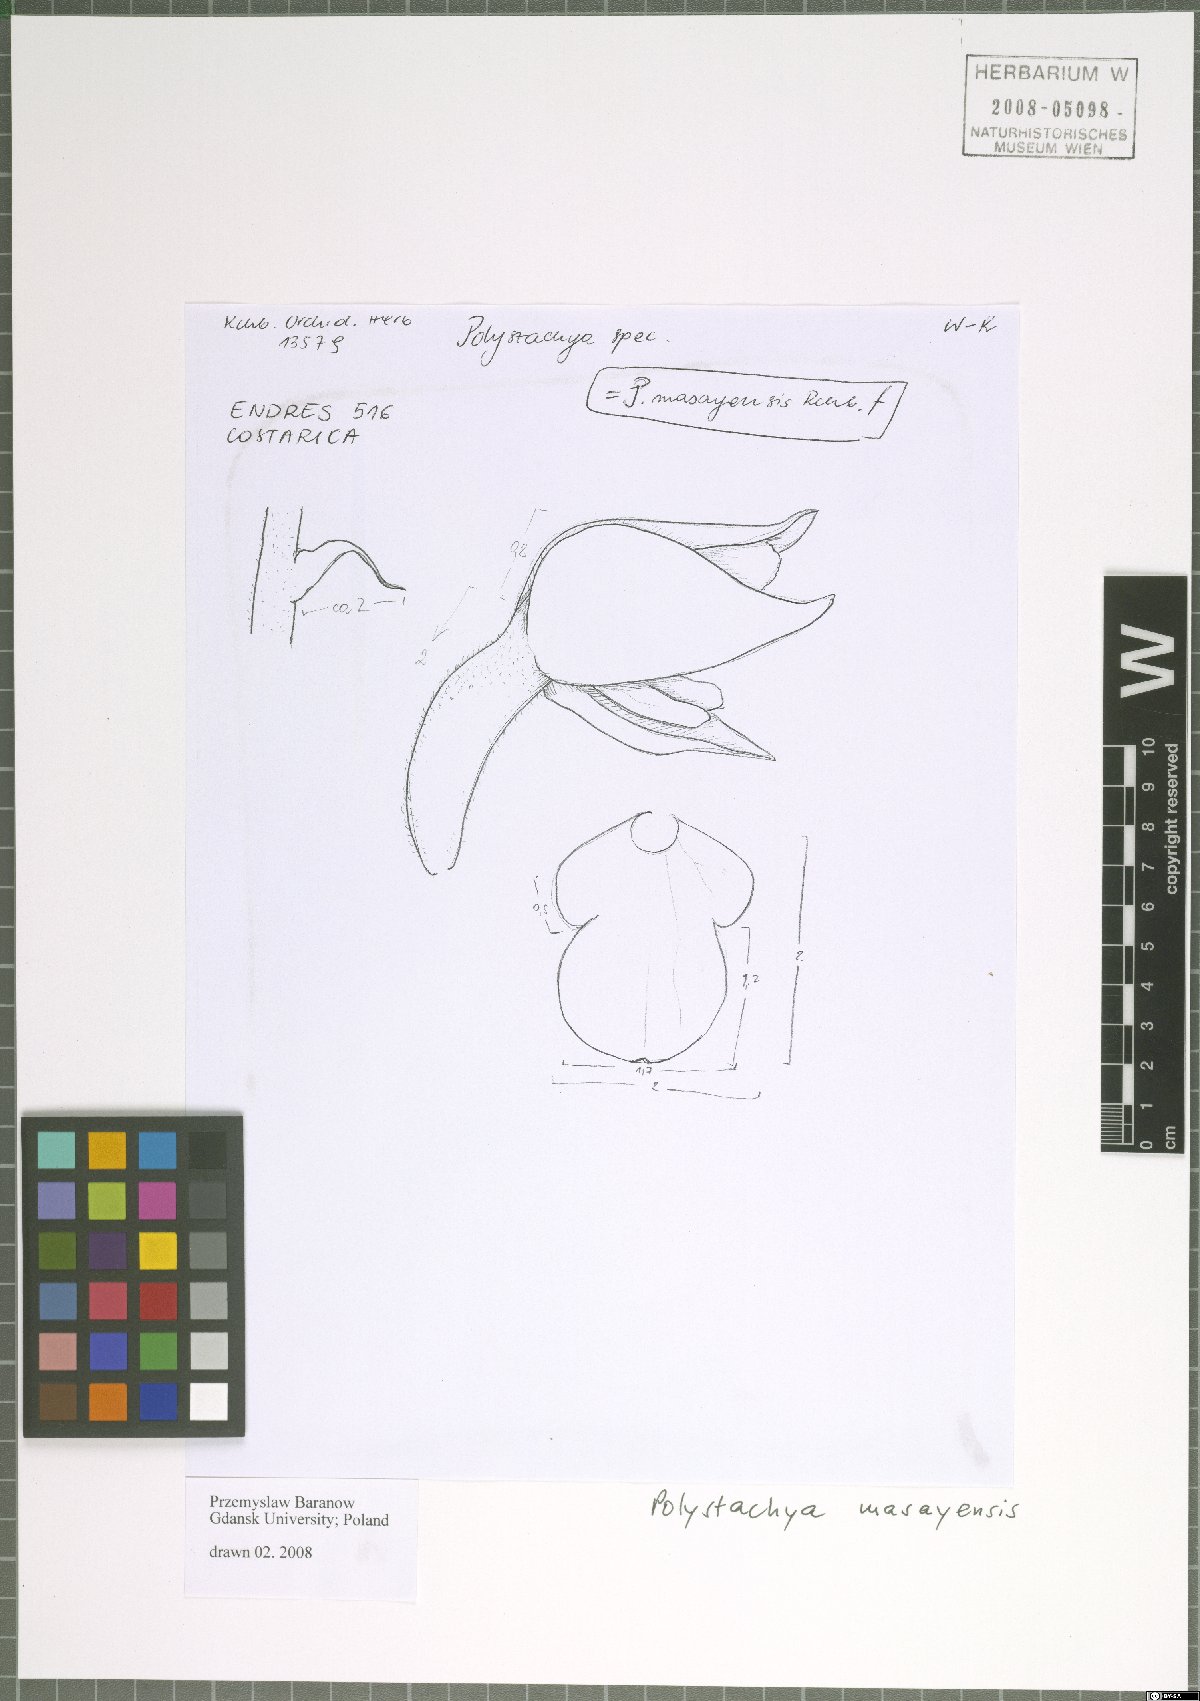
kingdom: Plantae
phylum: Tracheophyta
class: Liliopsida
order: Asparagales
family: Orchidaceae
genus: Polystachya
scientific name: Polystachya masayensis
